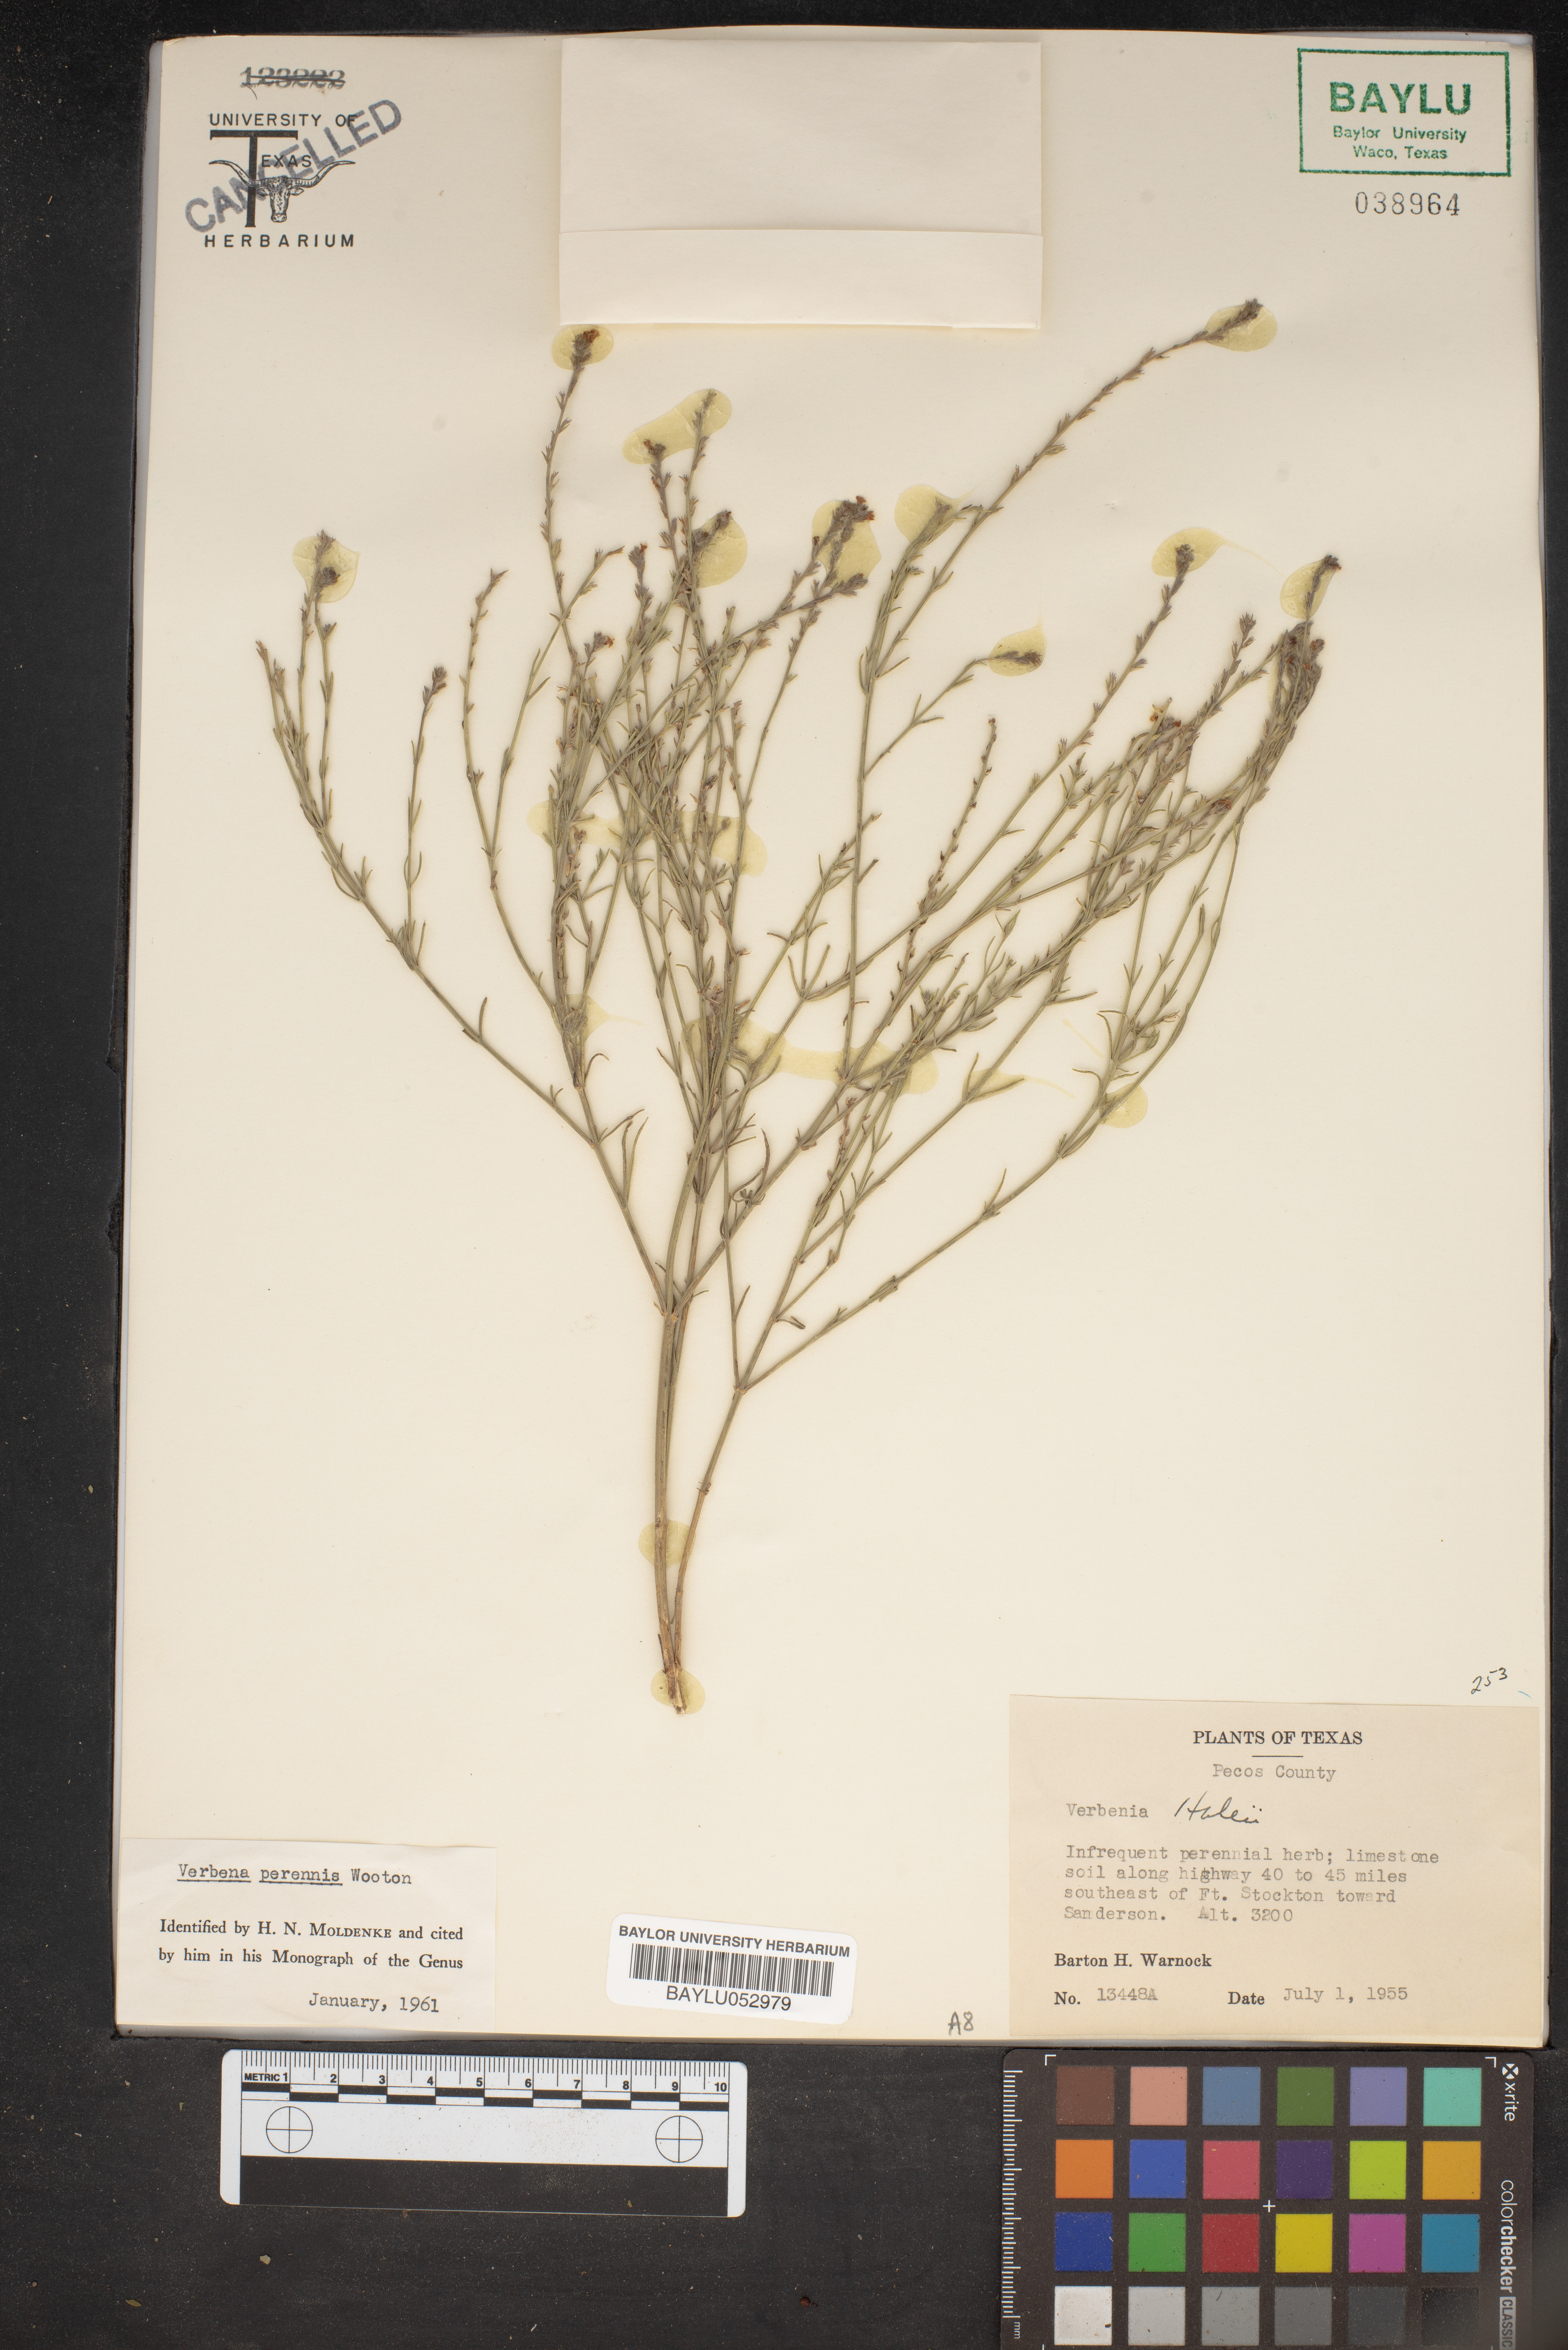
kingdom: Plantae
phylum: Tracheophyta
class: Magnoliopsida
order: Lamiales
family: Verbenaceae
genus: Verbena
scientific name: Verbena perennis
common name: Pin-leaf vervain
